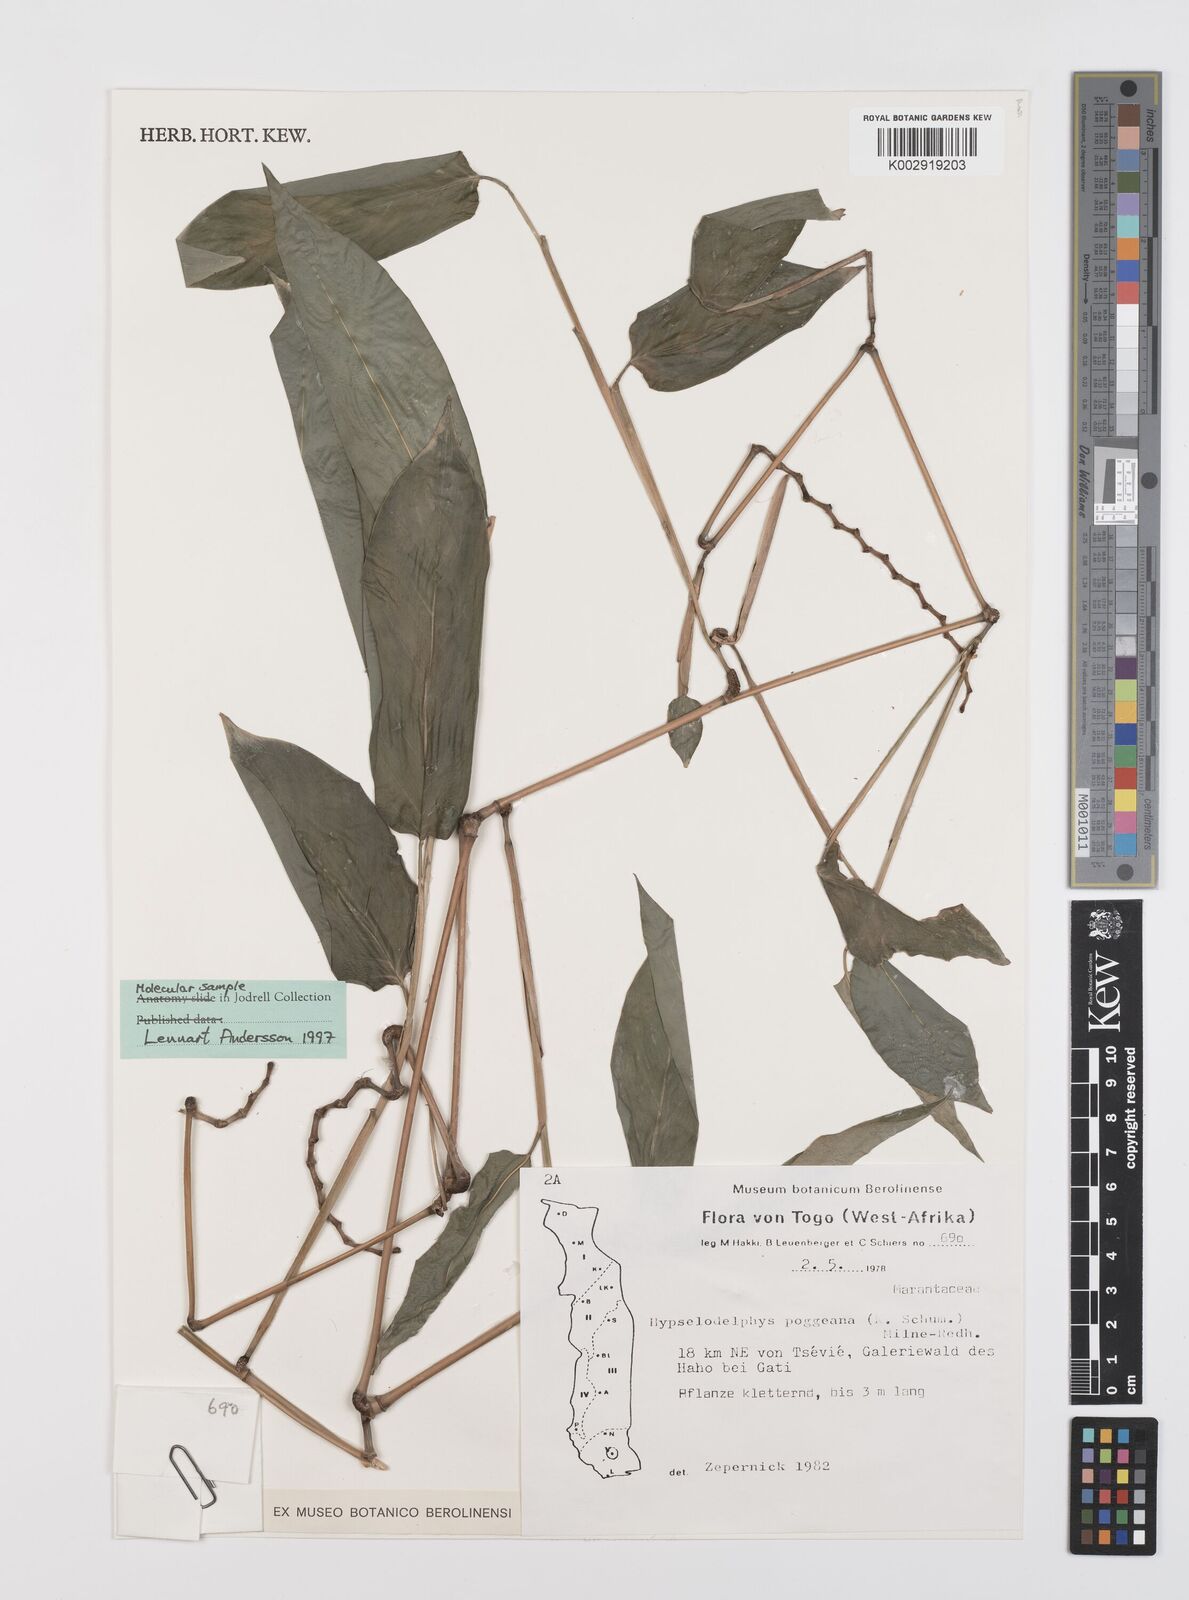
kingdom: Plantae
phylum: Tracheophyta
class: Liliopsida
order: Zingiberales
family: Marantaceae
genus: Hypselodelphys
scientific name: Hypselodelphys poggeana
